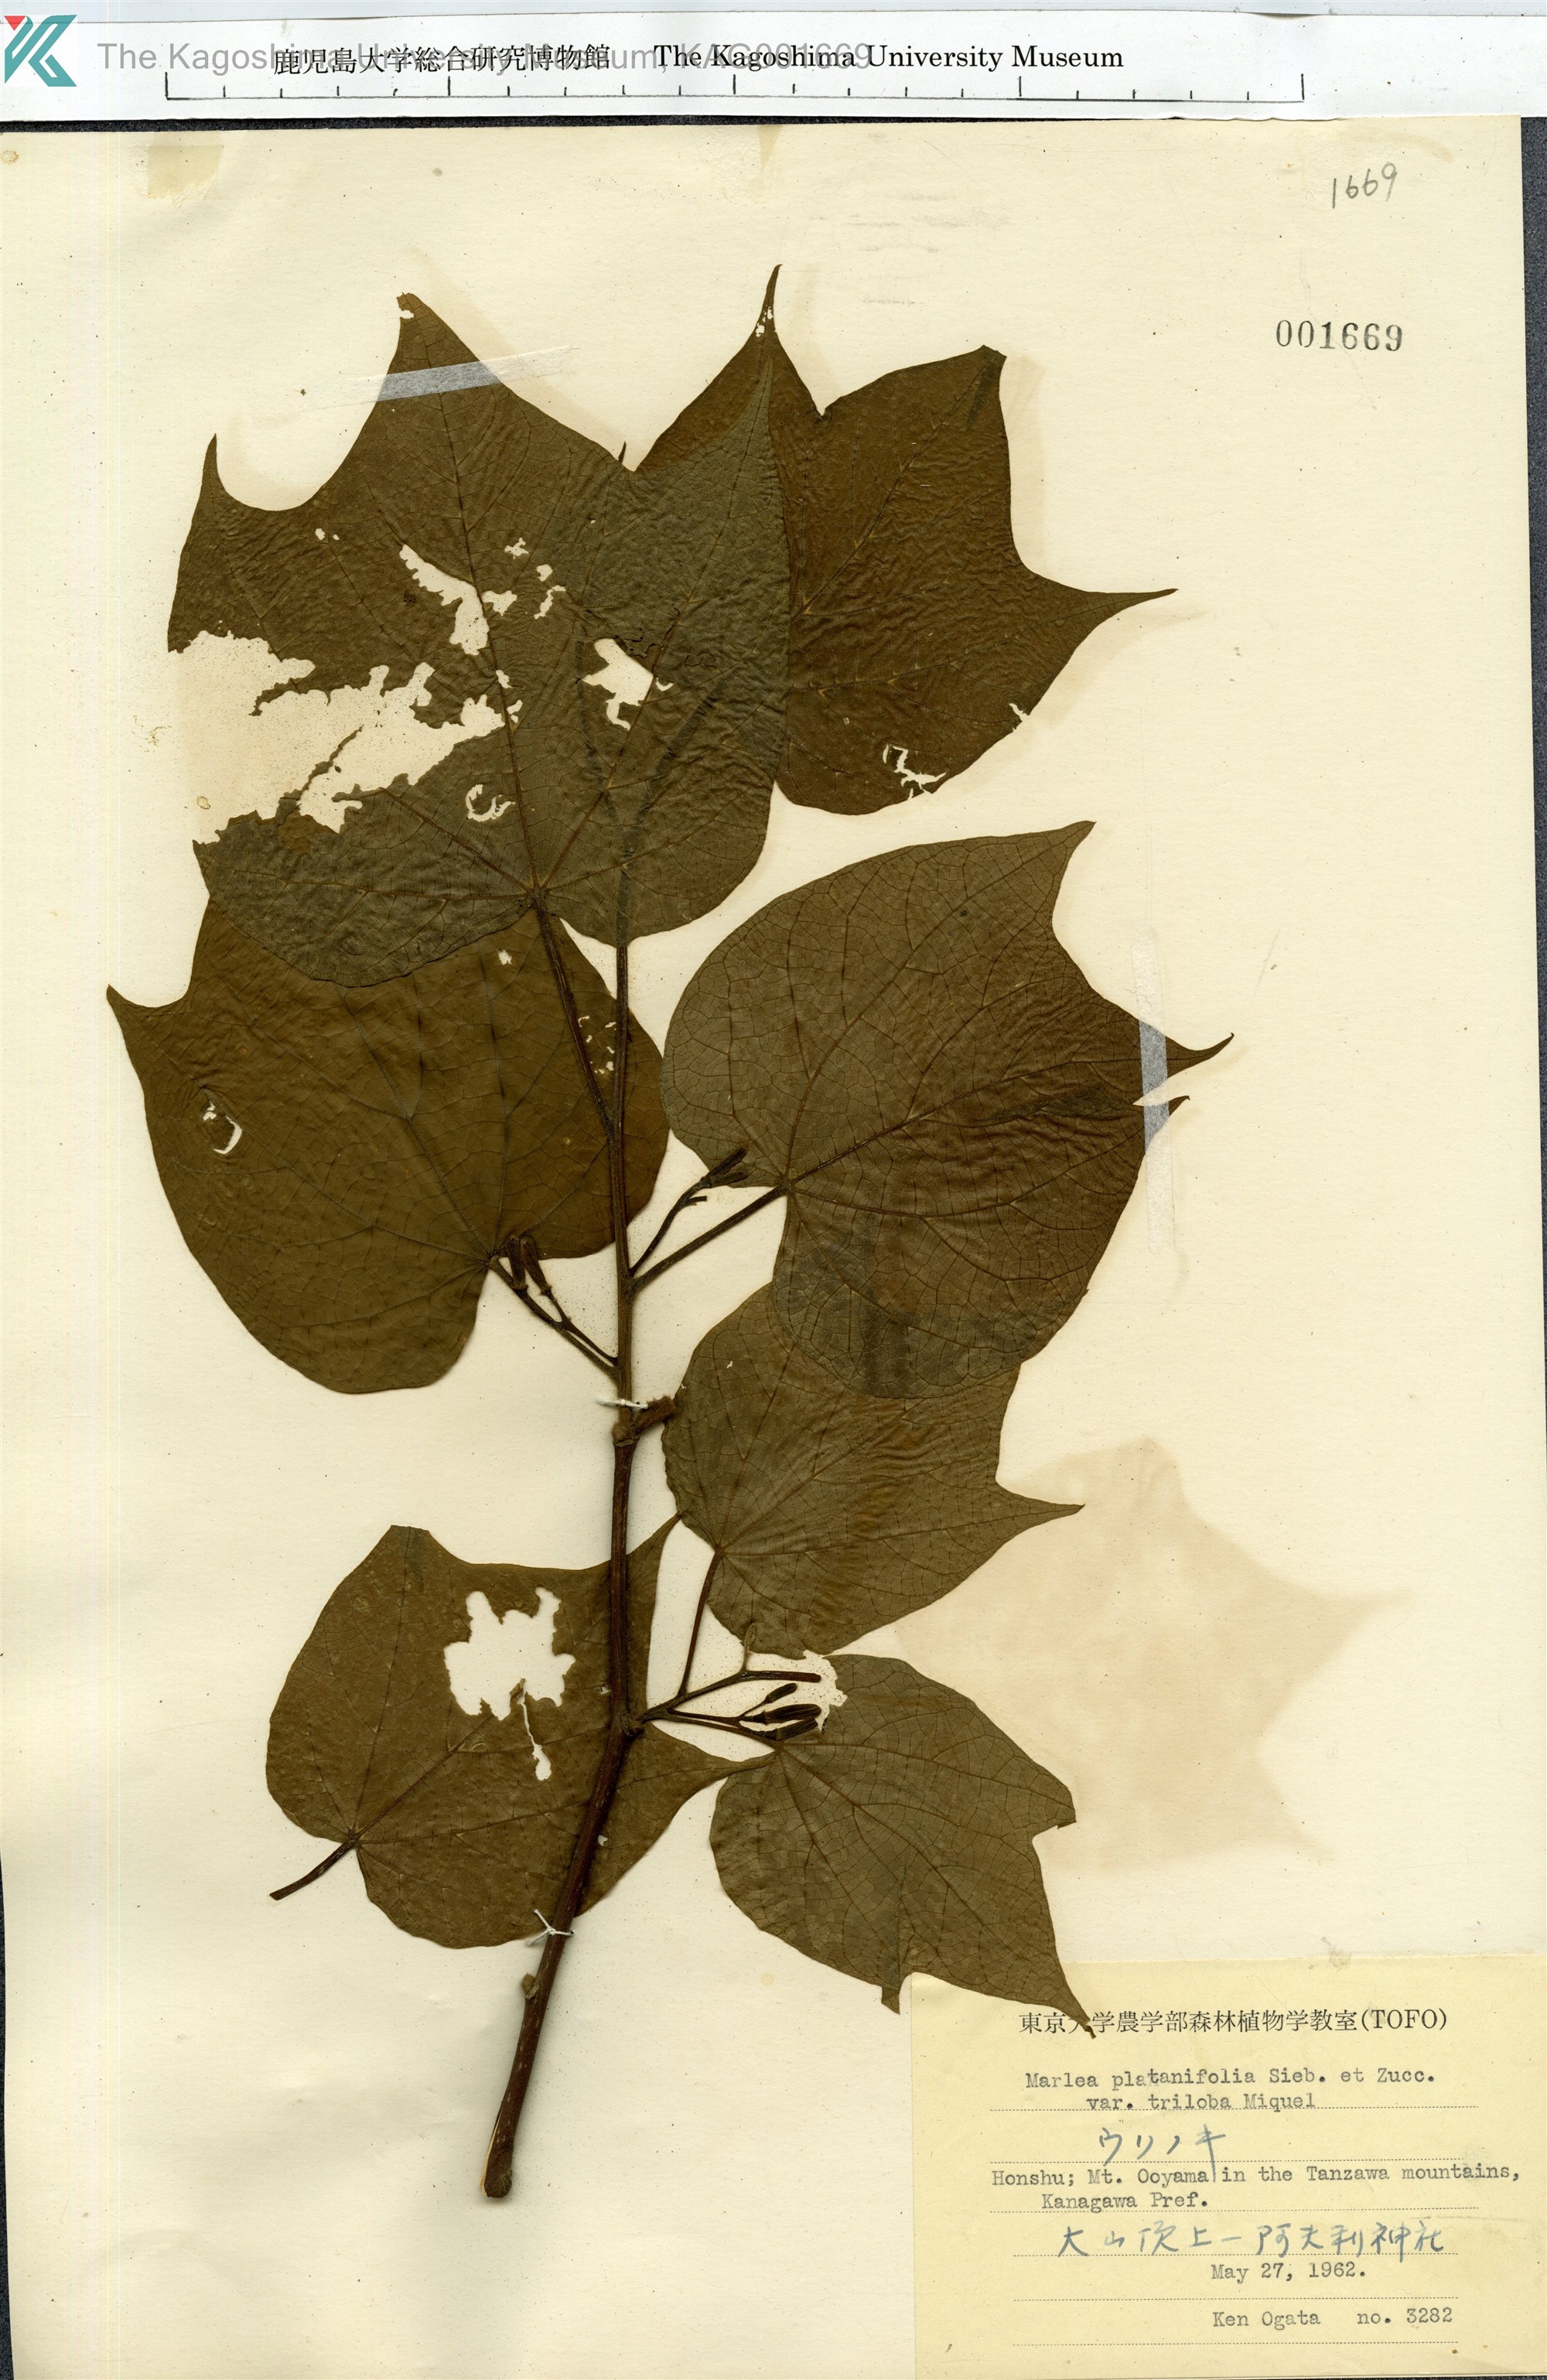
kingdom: Plantae
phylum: Tracheophyta
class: Magnoliopsida
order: Cornales
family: Cornaceae
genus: Alangium
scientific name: Alangium platanifolium
